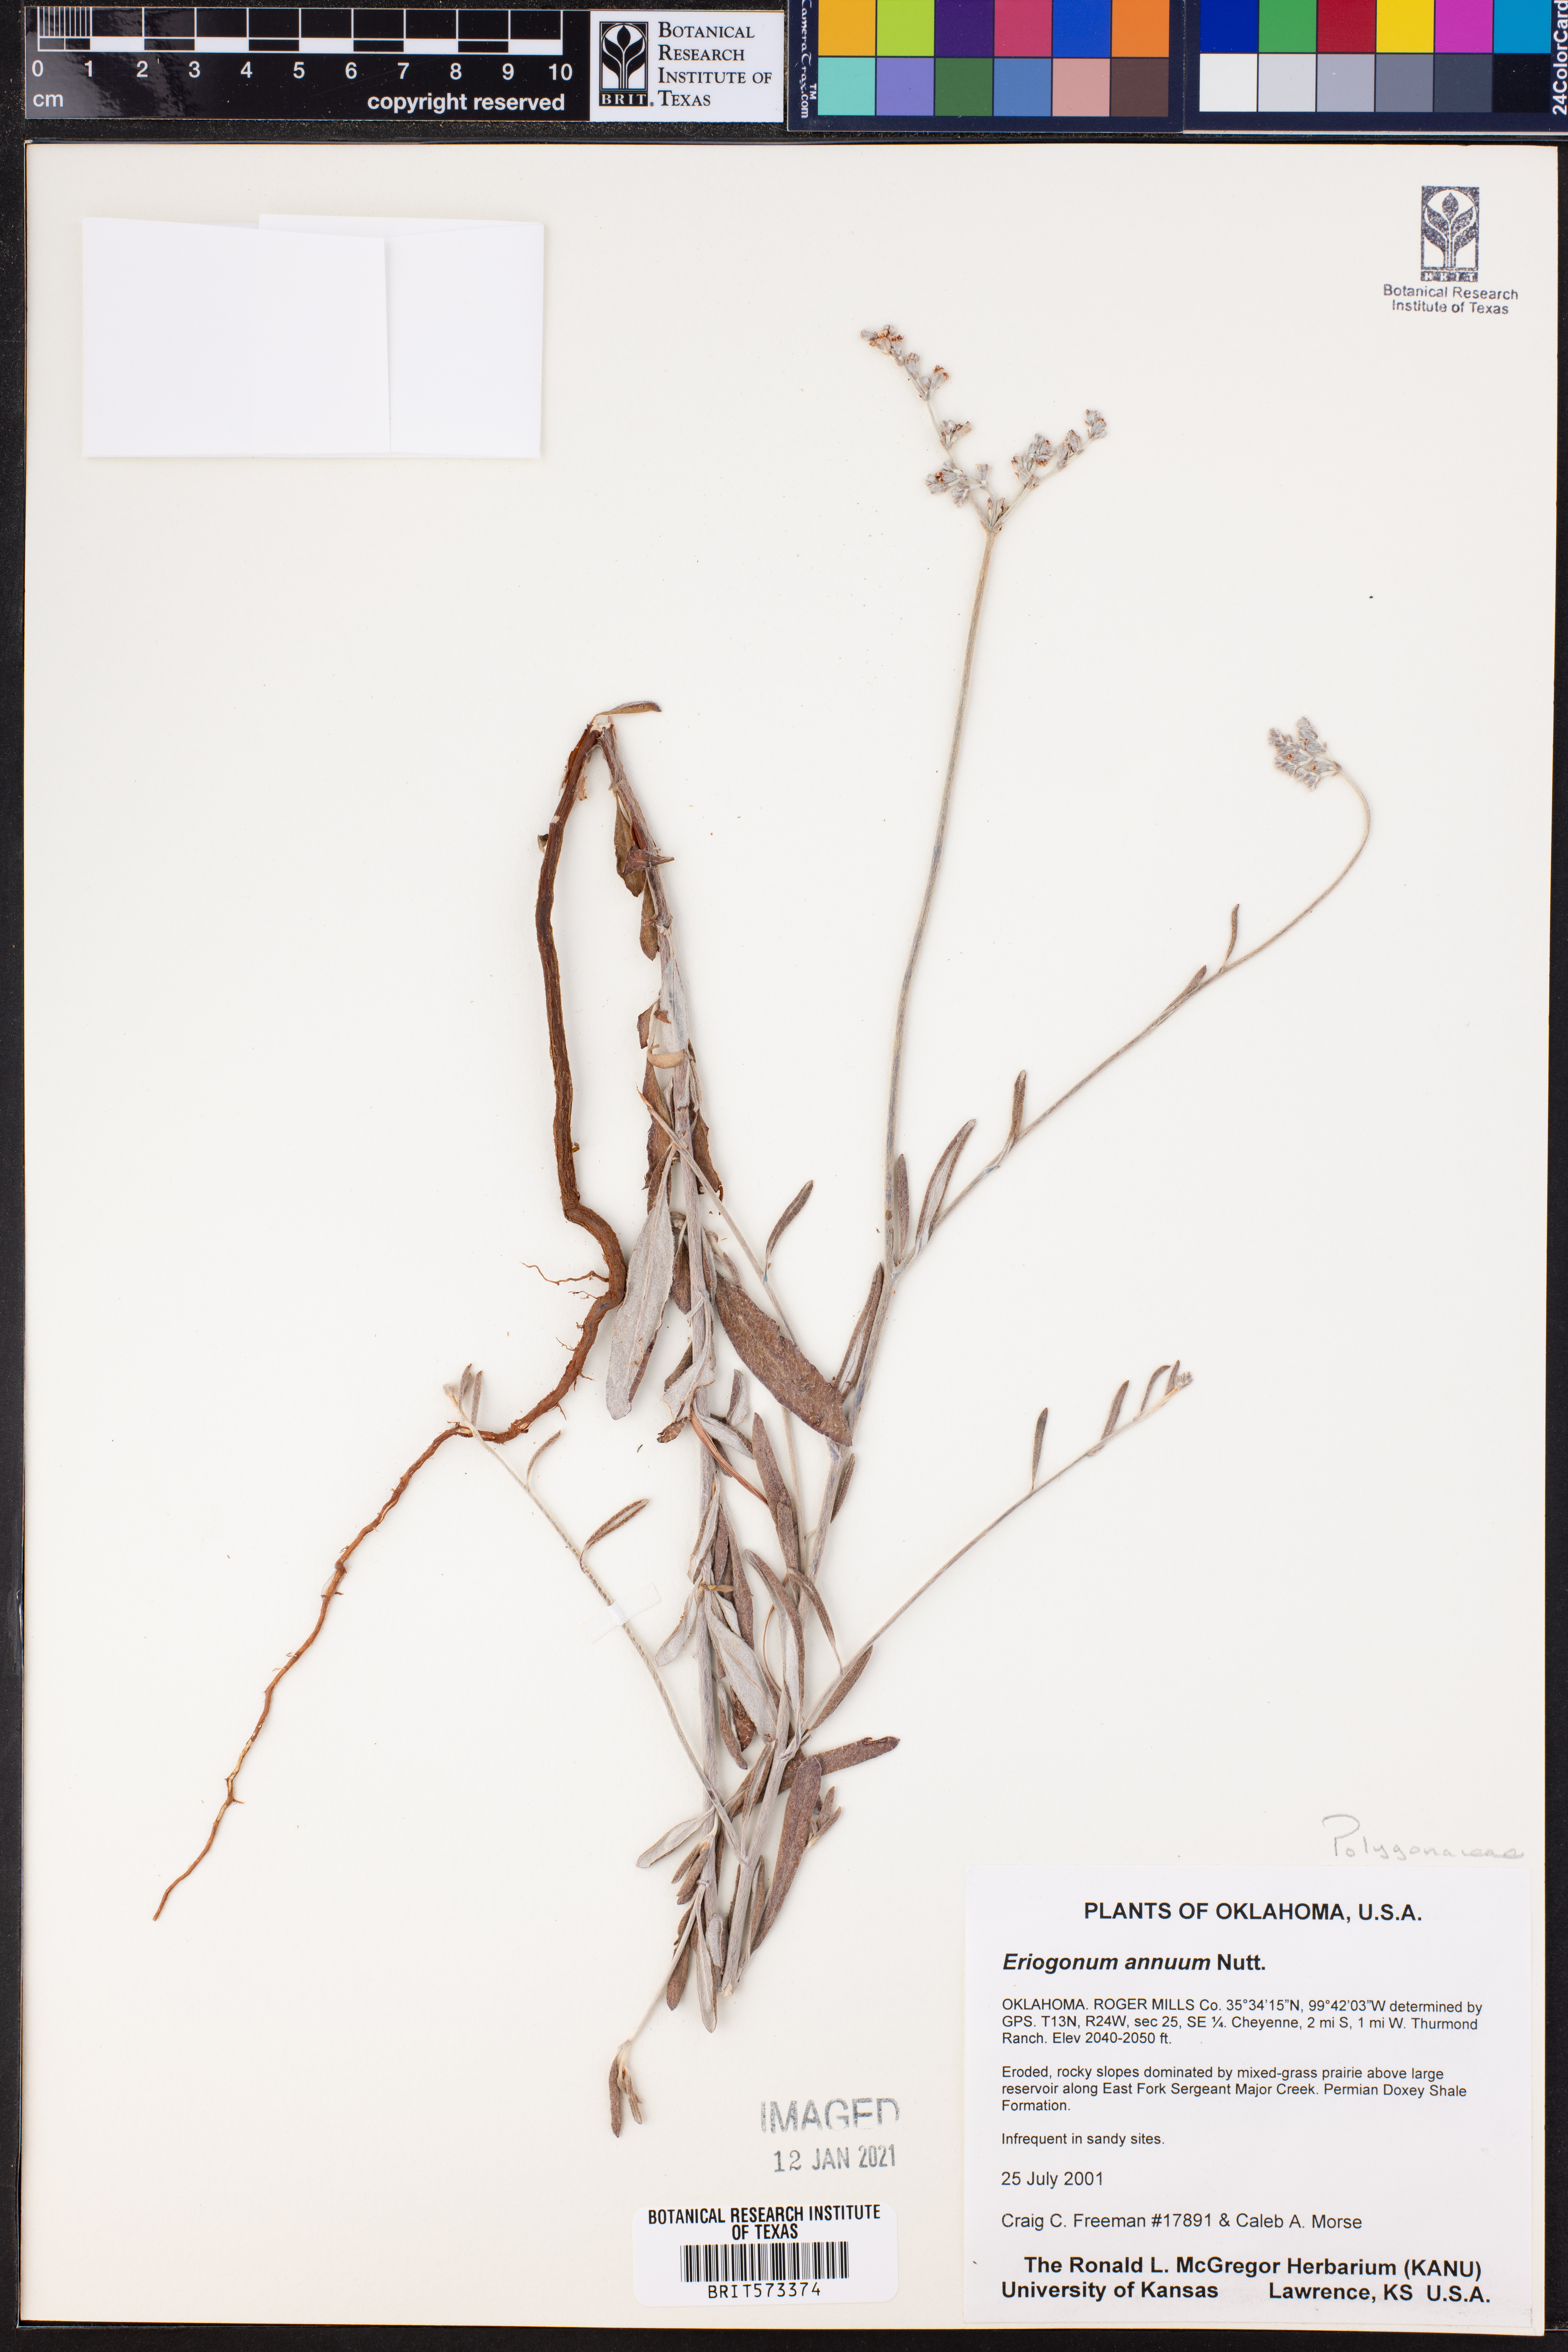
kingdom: Plantae
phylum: Tracheophyta
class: Magnoliopsida
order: Caryophyllales
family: Polygonaceae
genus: Eriogonum
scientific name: Eriogonum annuum
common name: Annual wild buckwheat
